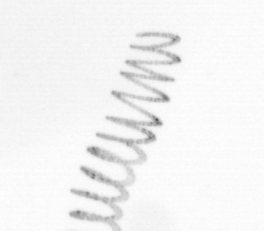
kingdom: Chromista
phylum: Ochrophyta
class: Bacillariophyceae
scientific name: Bacillariophyceae
